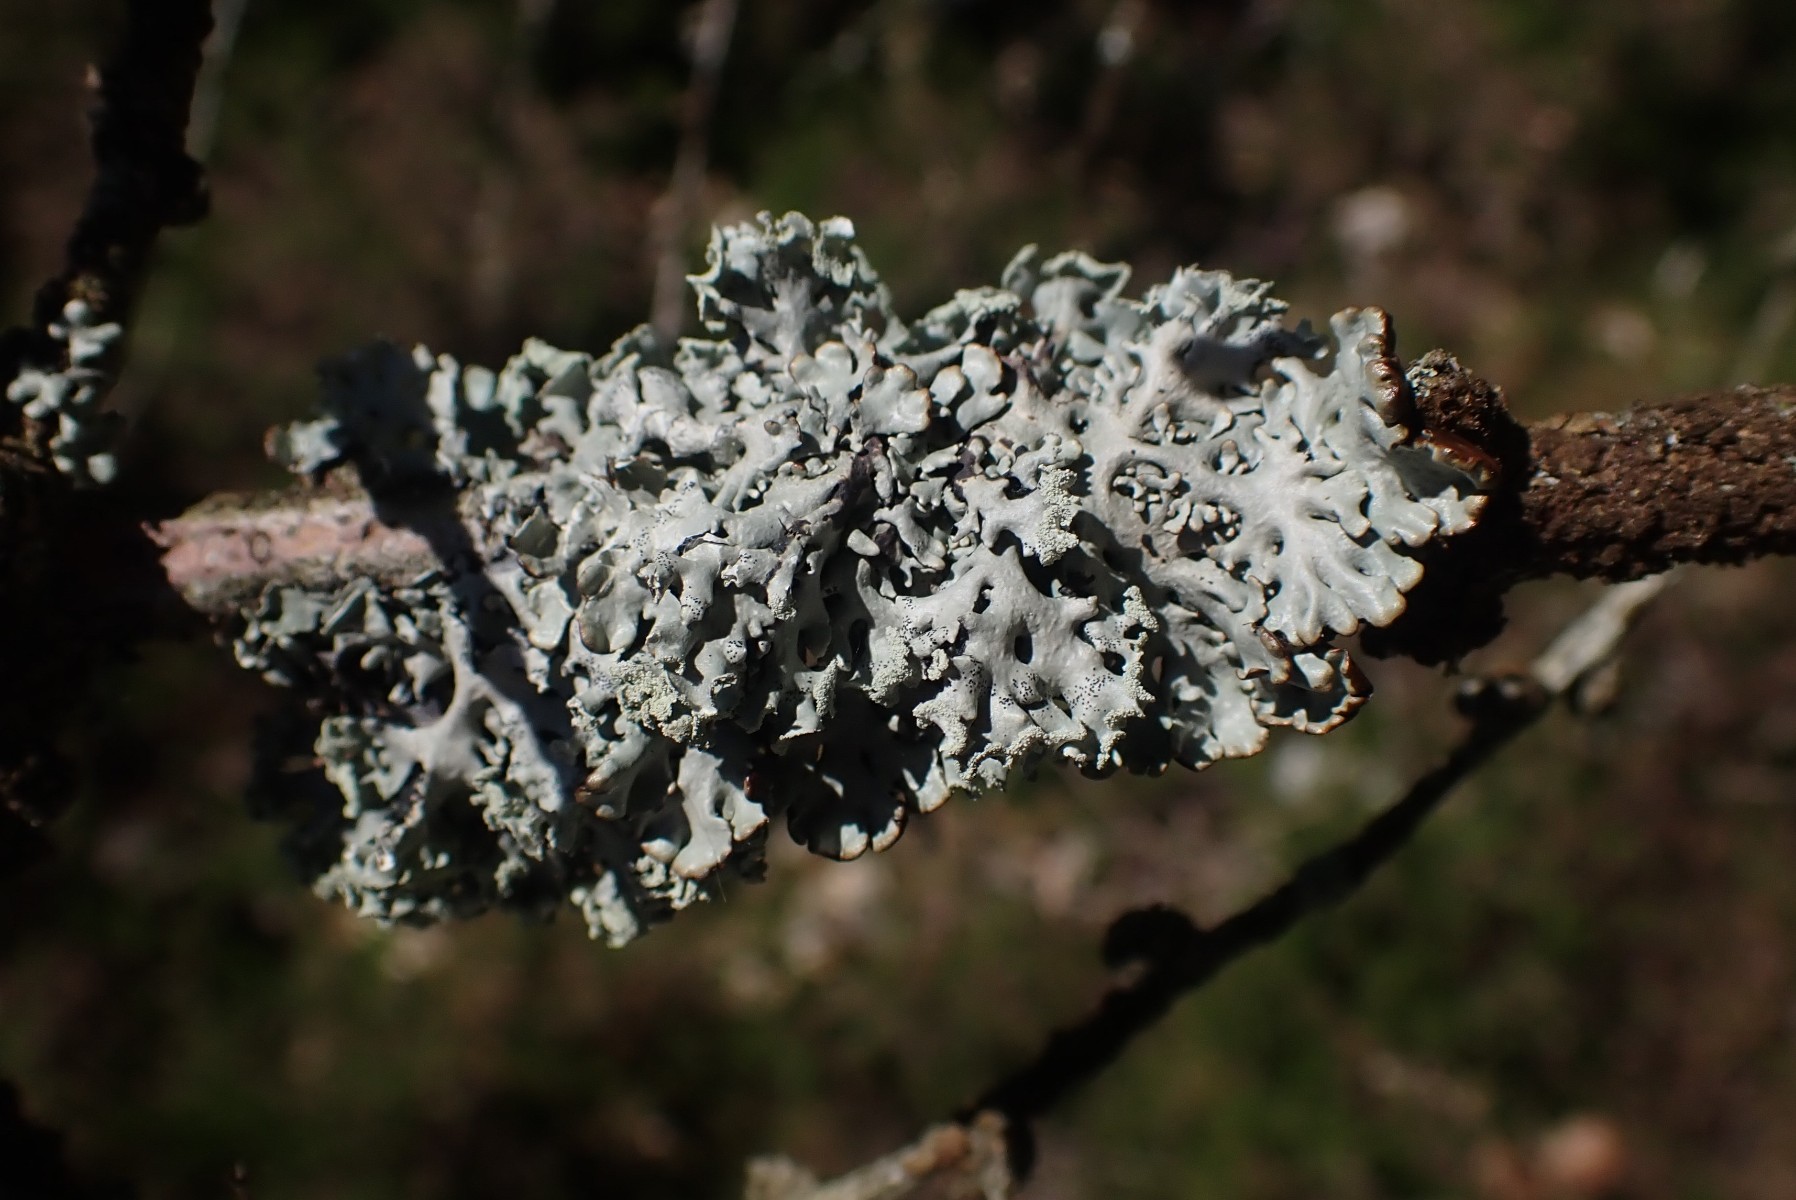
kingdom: Fungi
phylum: Ascomycota
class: Lecanoromycetes
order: Lecanorales
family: Parmeliaceae
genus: Hypogymnia
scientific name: Hypogymnia physodes
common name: almindelig kvistlav
